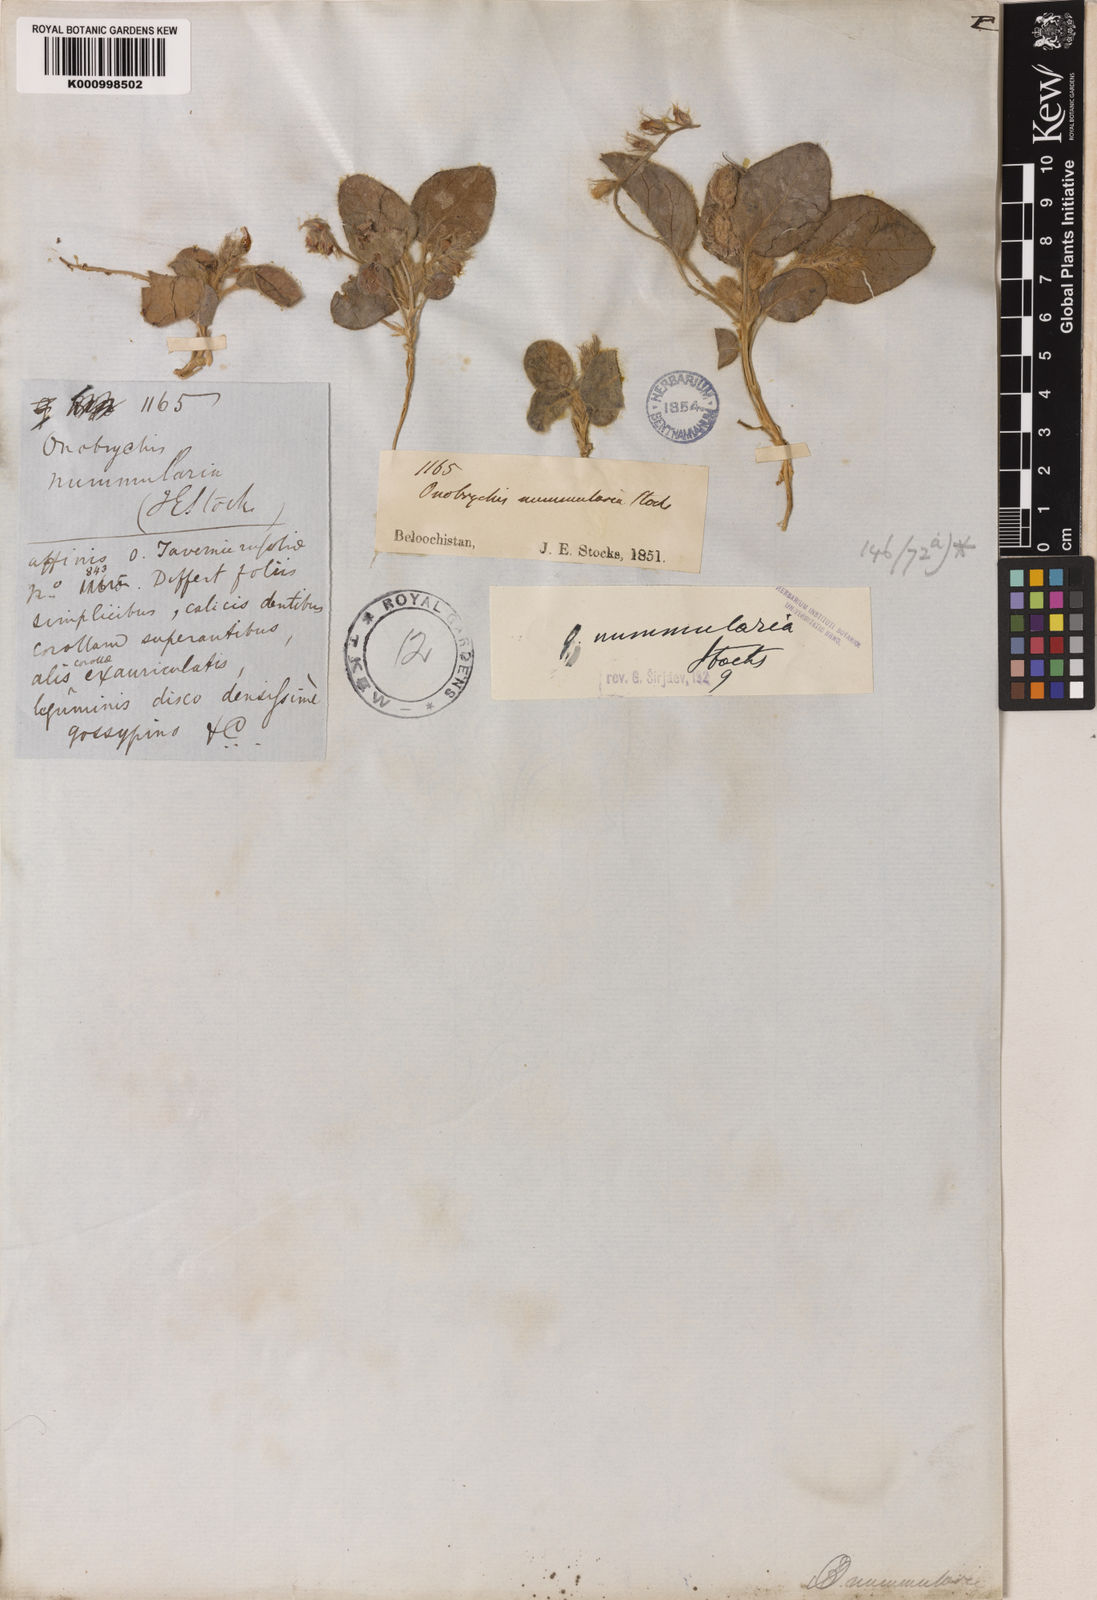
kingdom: Plantae
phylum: Tracheophyta
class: Magnoliopsida
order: Fabales
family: Fabaceae
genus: Onobrychis
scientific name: Onobrychis nummularia
